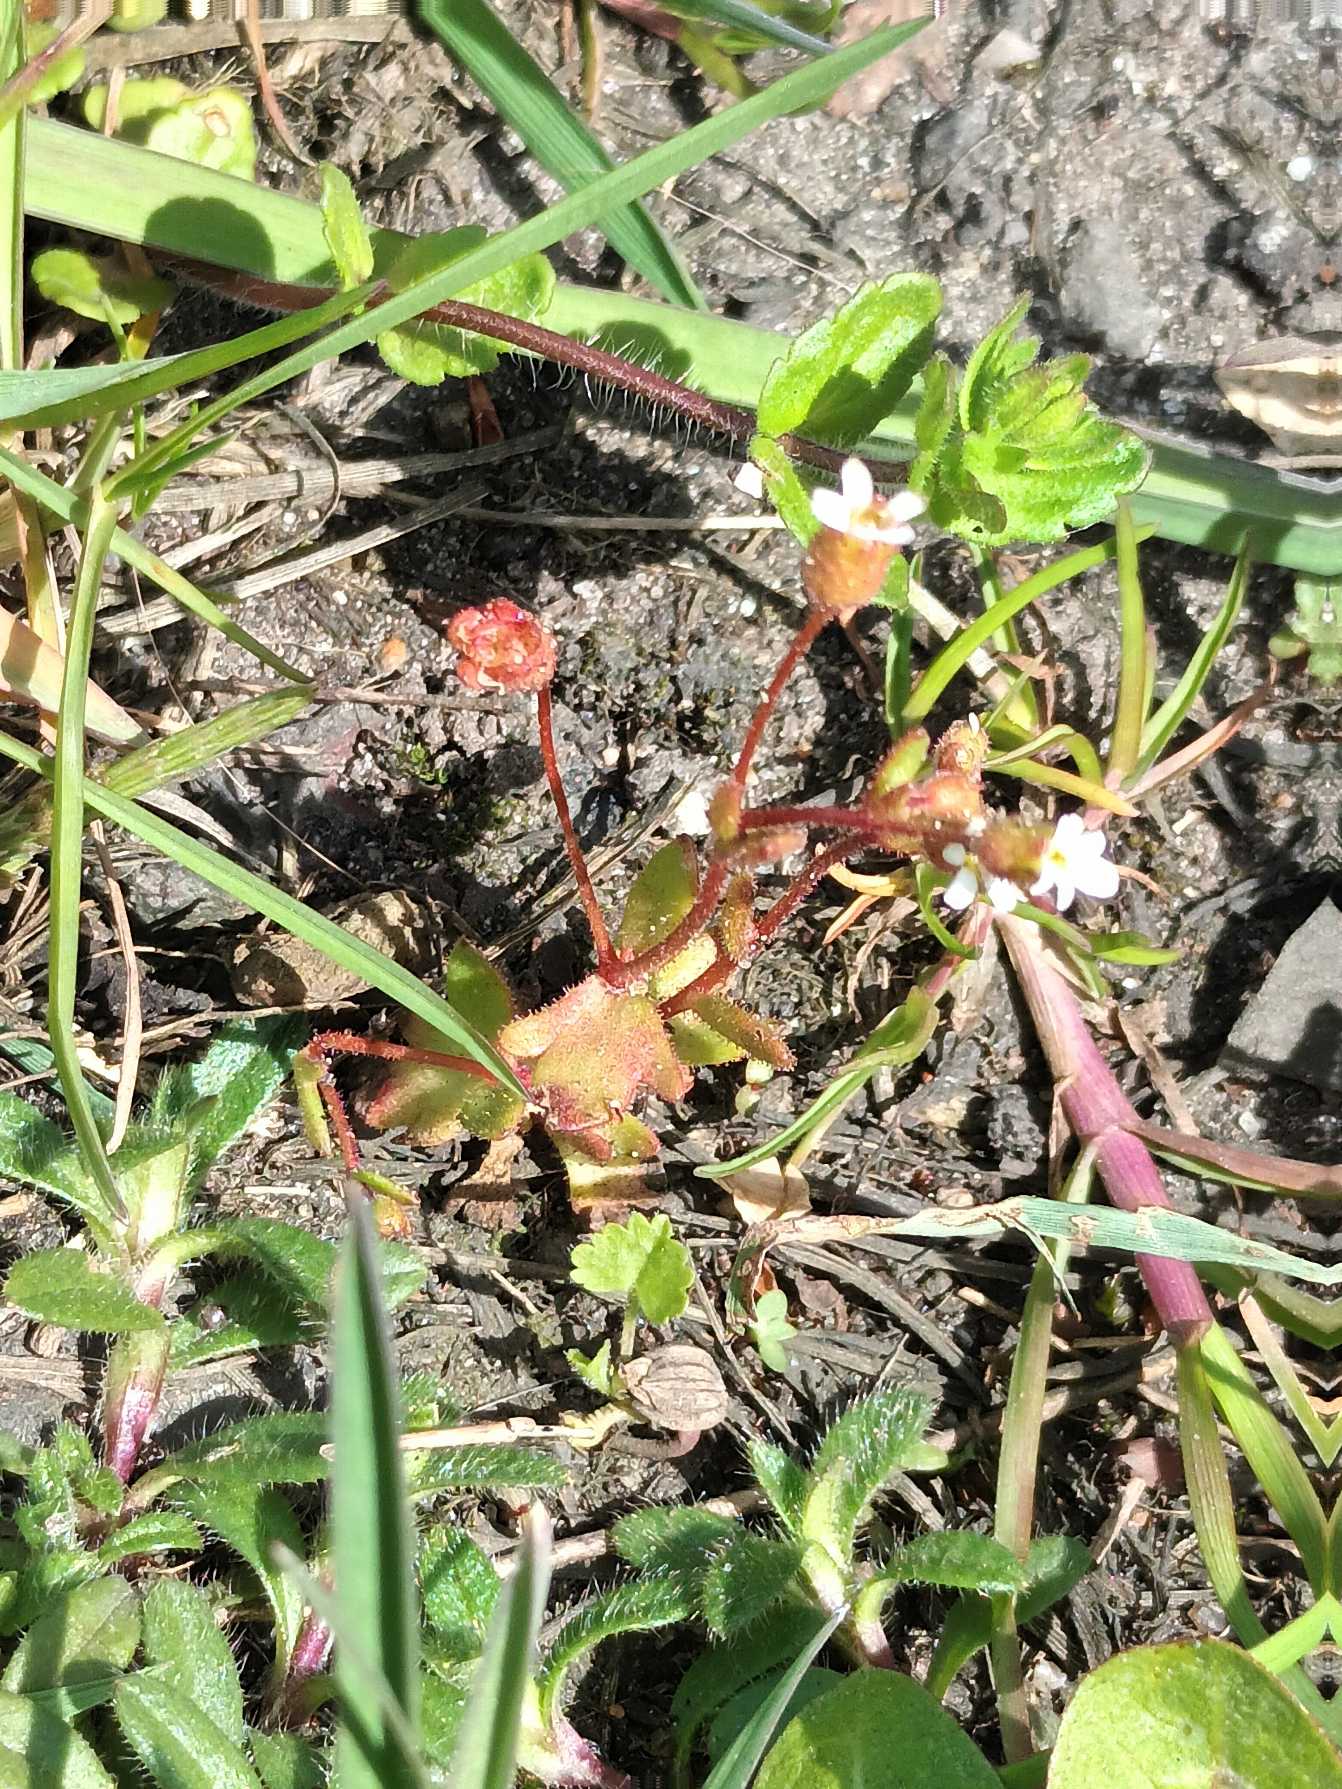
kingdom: Plantae
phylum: Tracheophyta
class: Magnoliopsida
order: Saxifragales
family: Saxifragaceae
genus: Saxifraga
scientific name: Saxifraga tridactylites
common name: Trekløft-stenbræk
